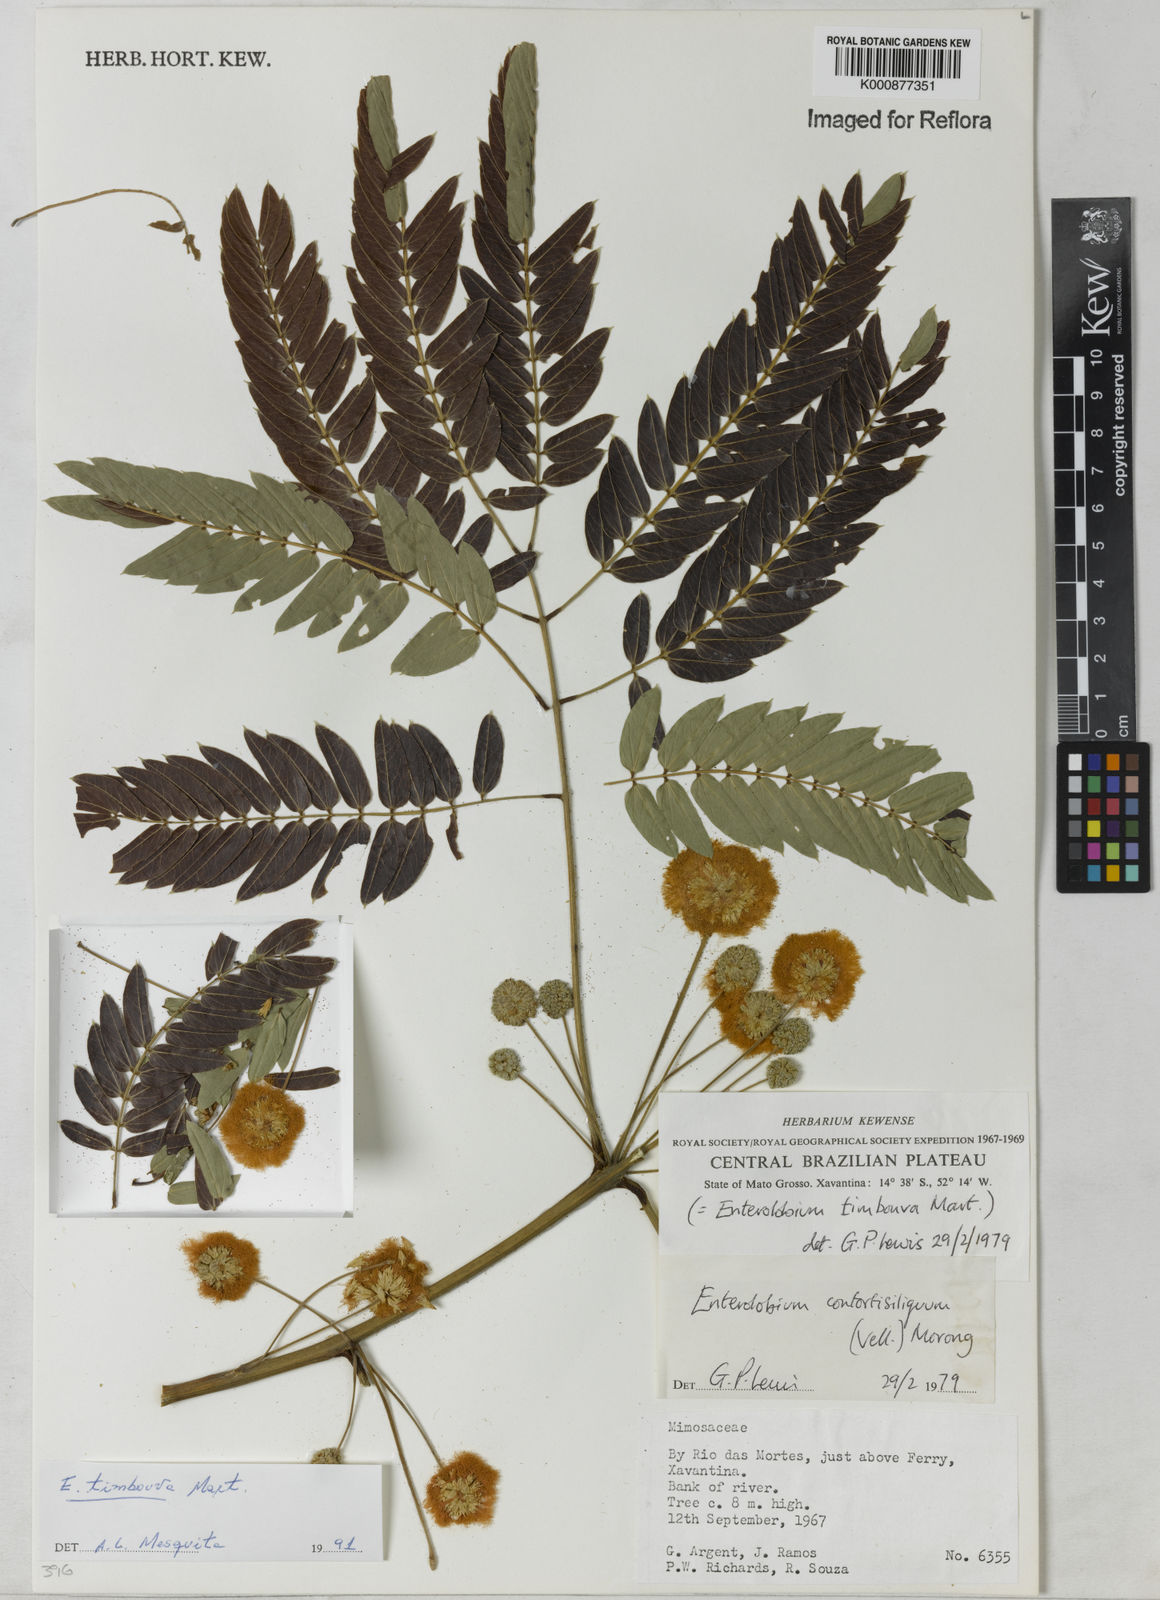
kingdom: Plantae
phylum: Tracheophyta
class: Magnoliopsida
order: Fabales
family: Fabaceae
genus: Enterolobium
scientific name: Enterolobium timbouva
